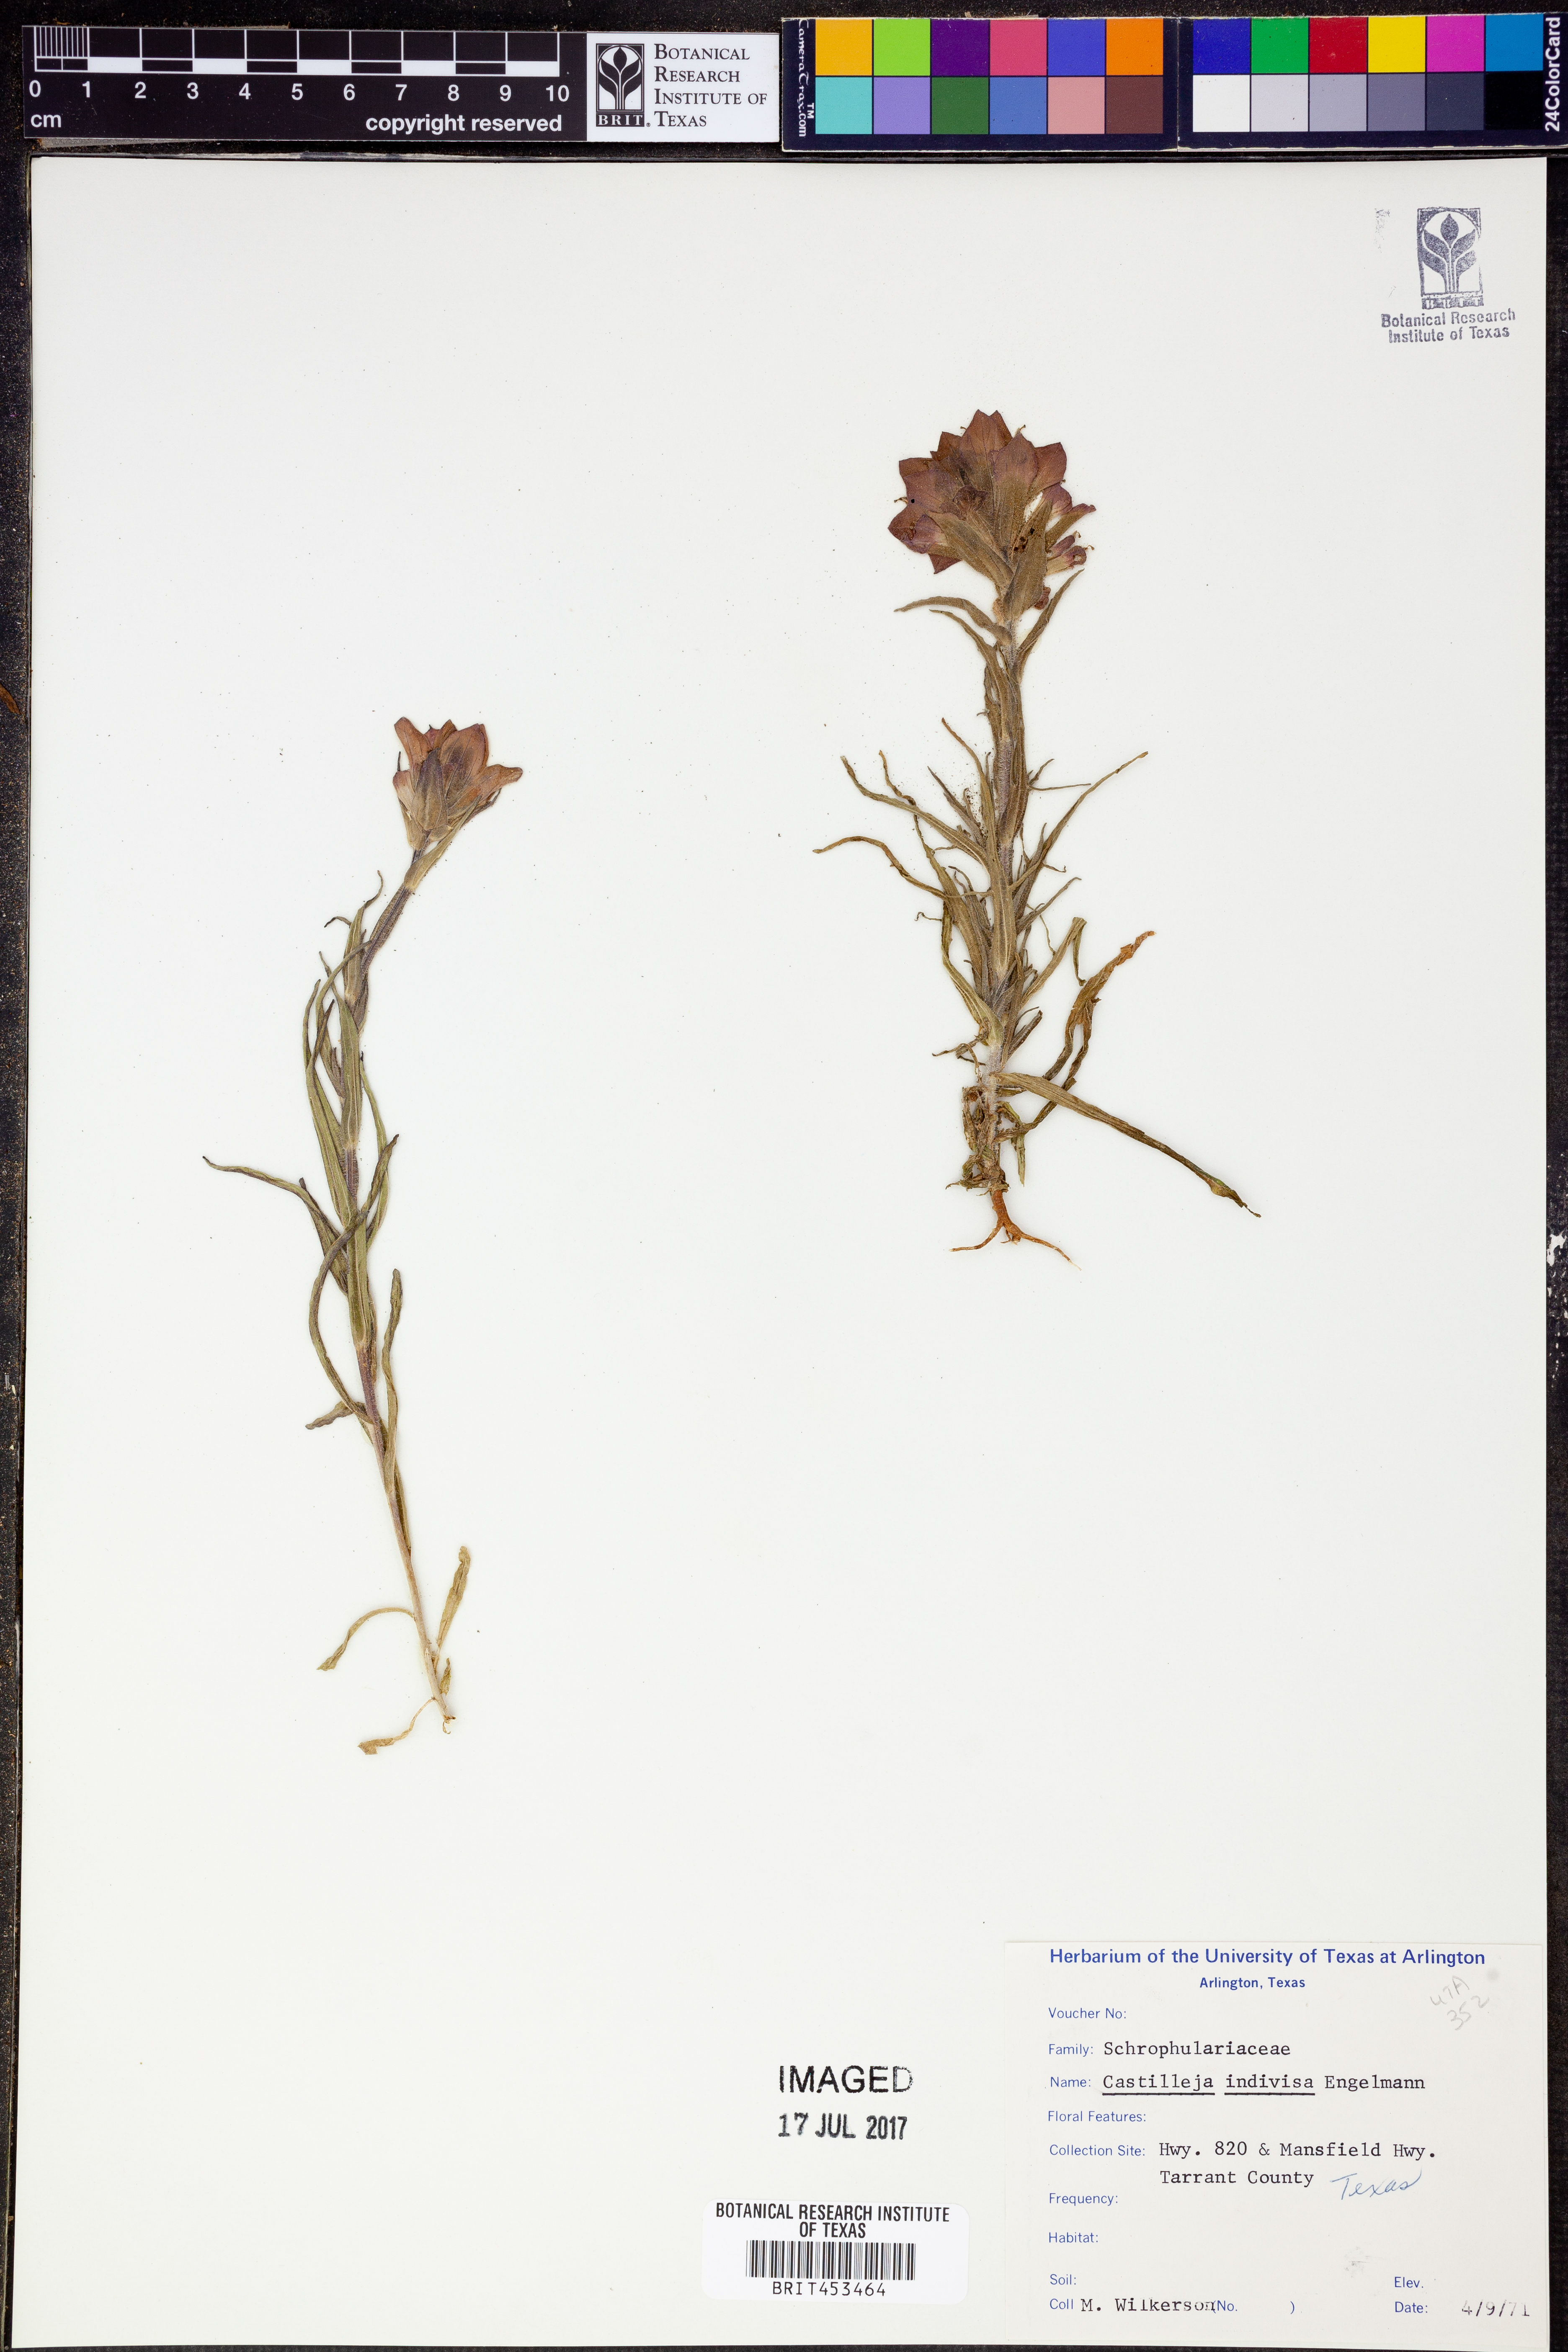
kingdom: Plantae
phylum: Tracheophyta
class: Magnoliopsida
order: Lamiales
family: Orobanchaceae
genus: Castilleja
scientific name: Castilleja indivisa
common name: Texas paintbrush
